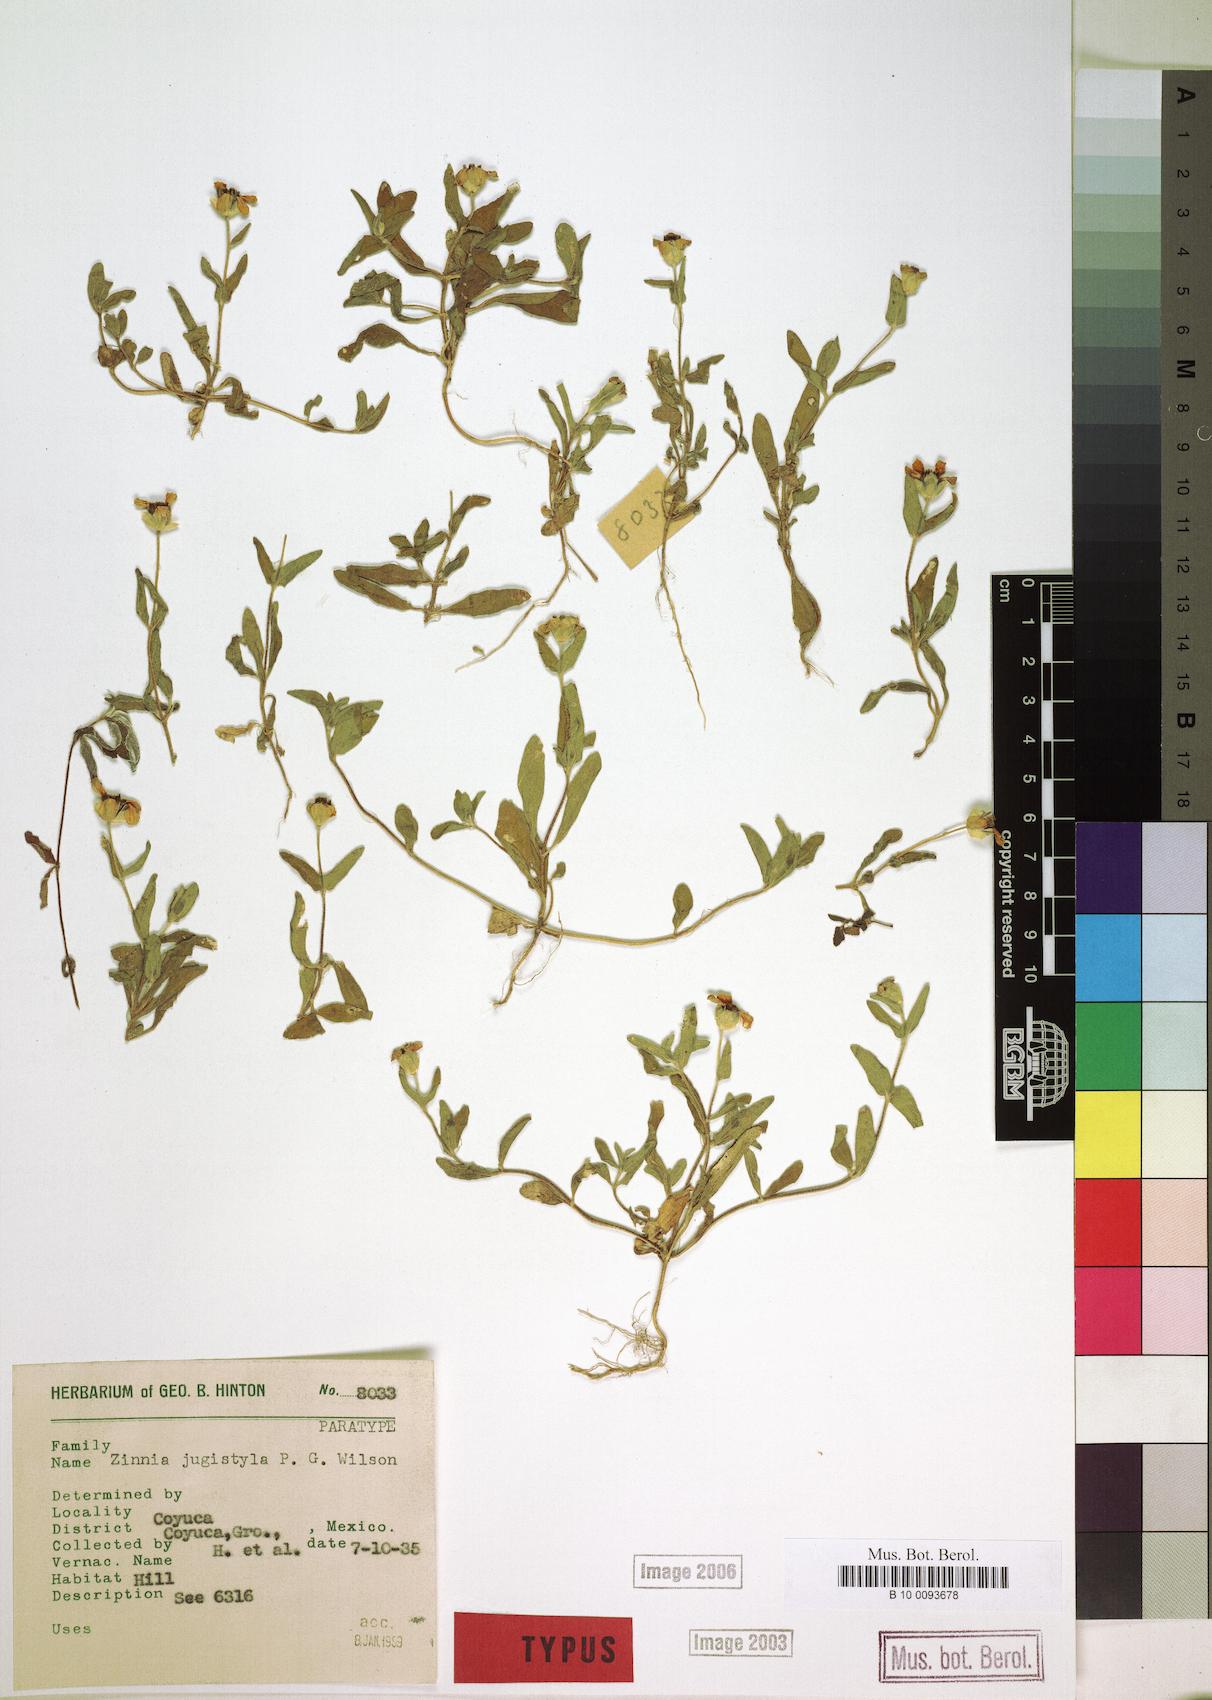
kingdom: Plantae
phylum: Tracheophyta
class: Magnoliopsida
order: Asterales
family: Asteraceae
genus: Zinnia
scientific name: Zinnia flavicoma
